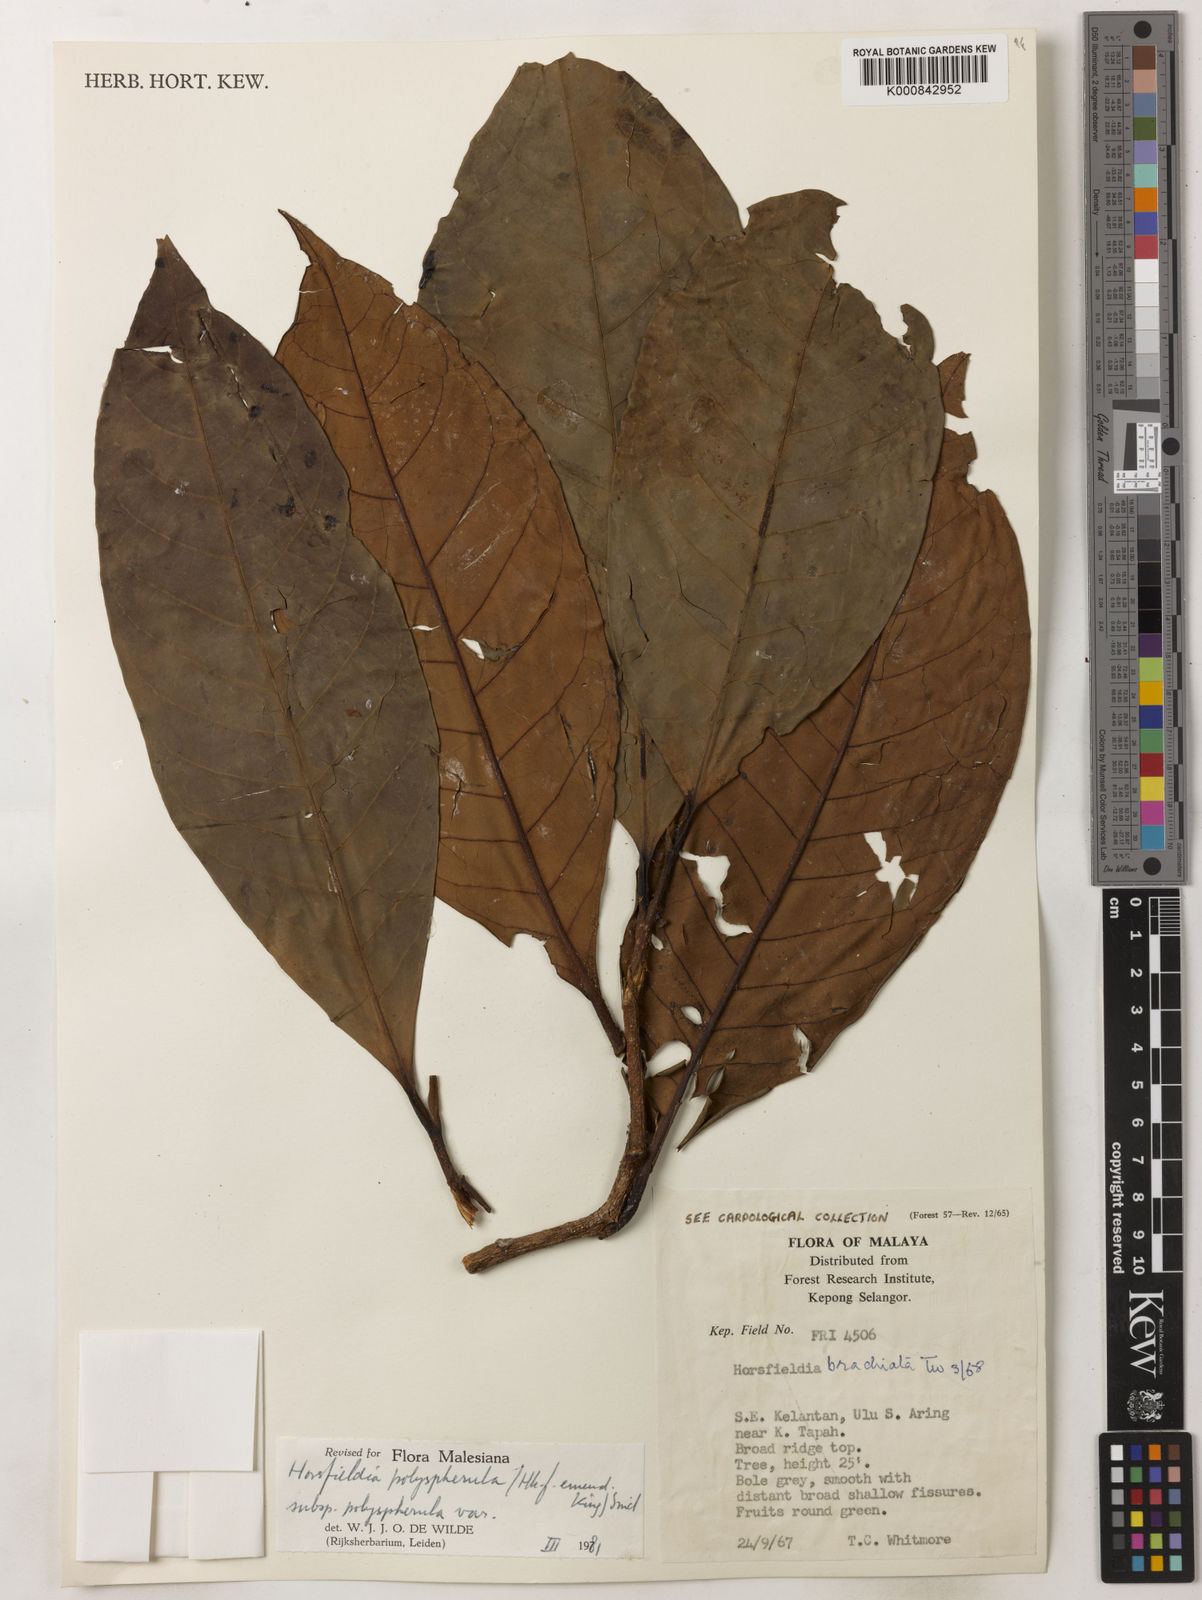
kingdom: Plantae
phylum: Tracheophyta
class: Magnoliopsida
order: Magnoliales
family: Myristicaceae
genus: Horsfieldia
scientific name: Horsfieldia
